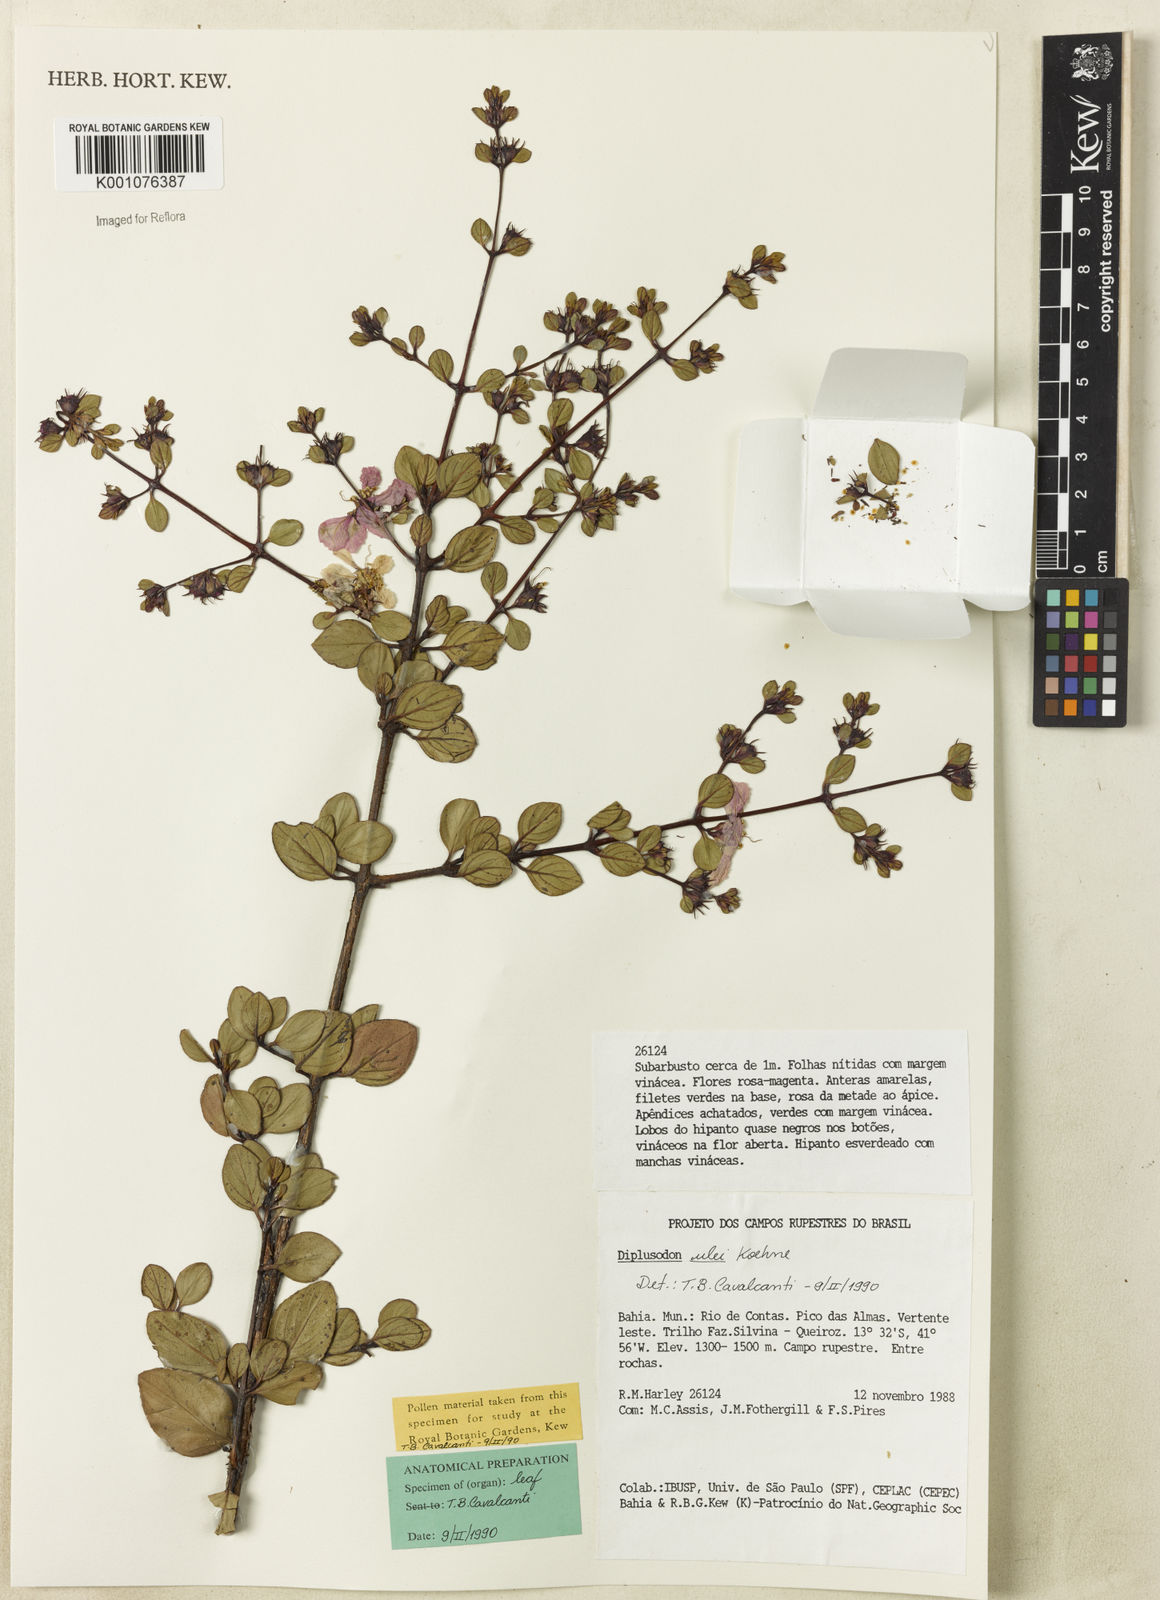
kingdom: Plantae
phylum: Tracheophyta
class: Magnoliopsida
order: Myrtales
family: Lythraceae
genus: Diplusodon
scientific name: Diplusodon ulei
